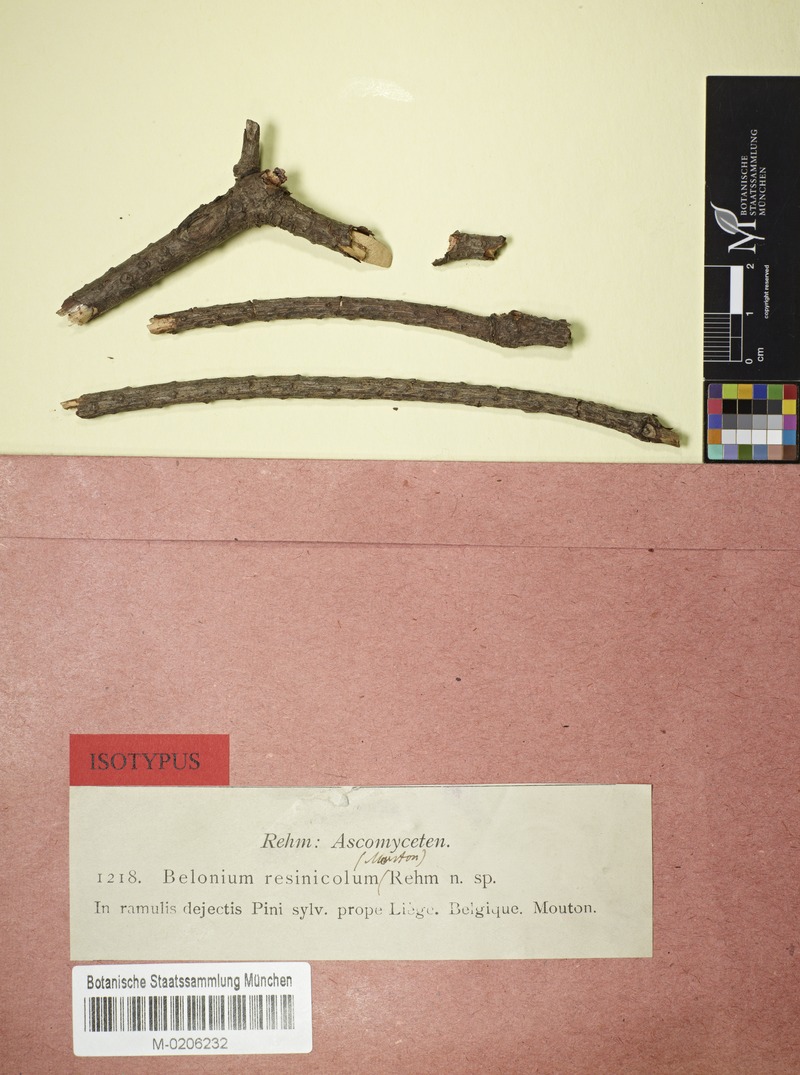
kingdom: Fungi
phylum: Ascomycota
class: Leotiomycetes
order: Helotiales
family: Calloriaceae
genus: Micropodia
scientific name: Micropodia resinicola
